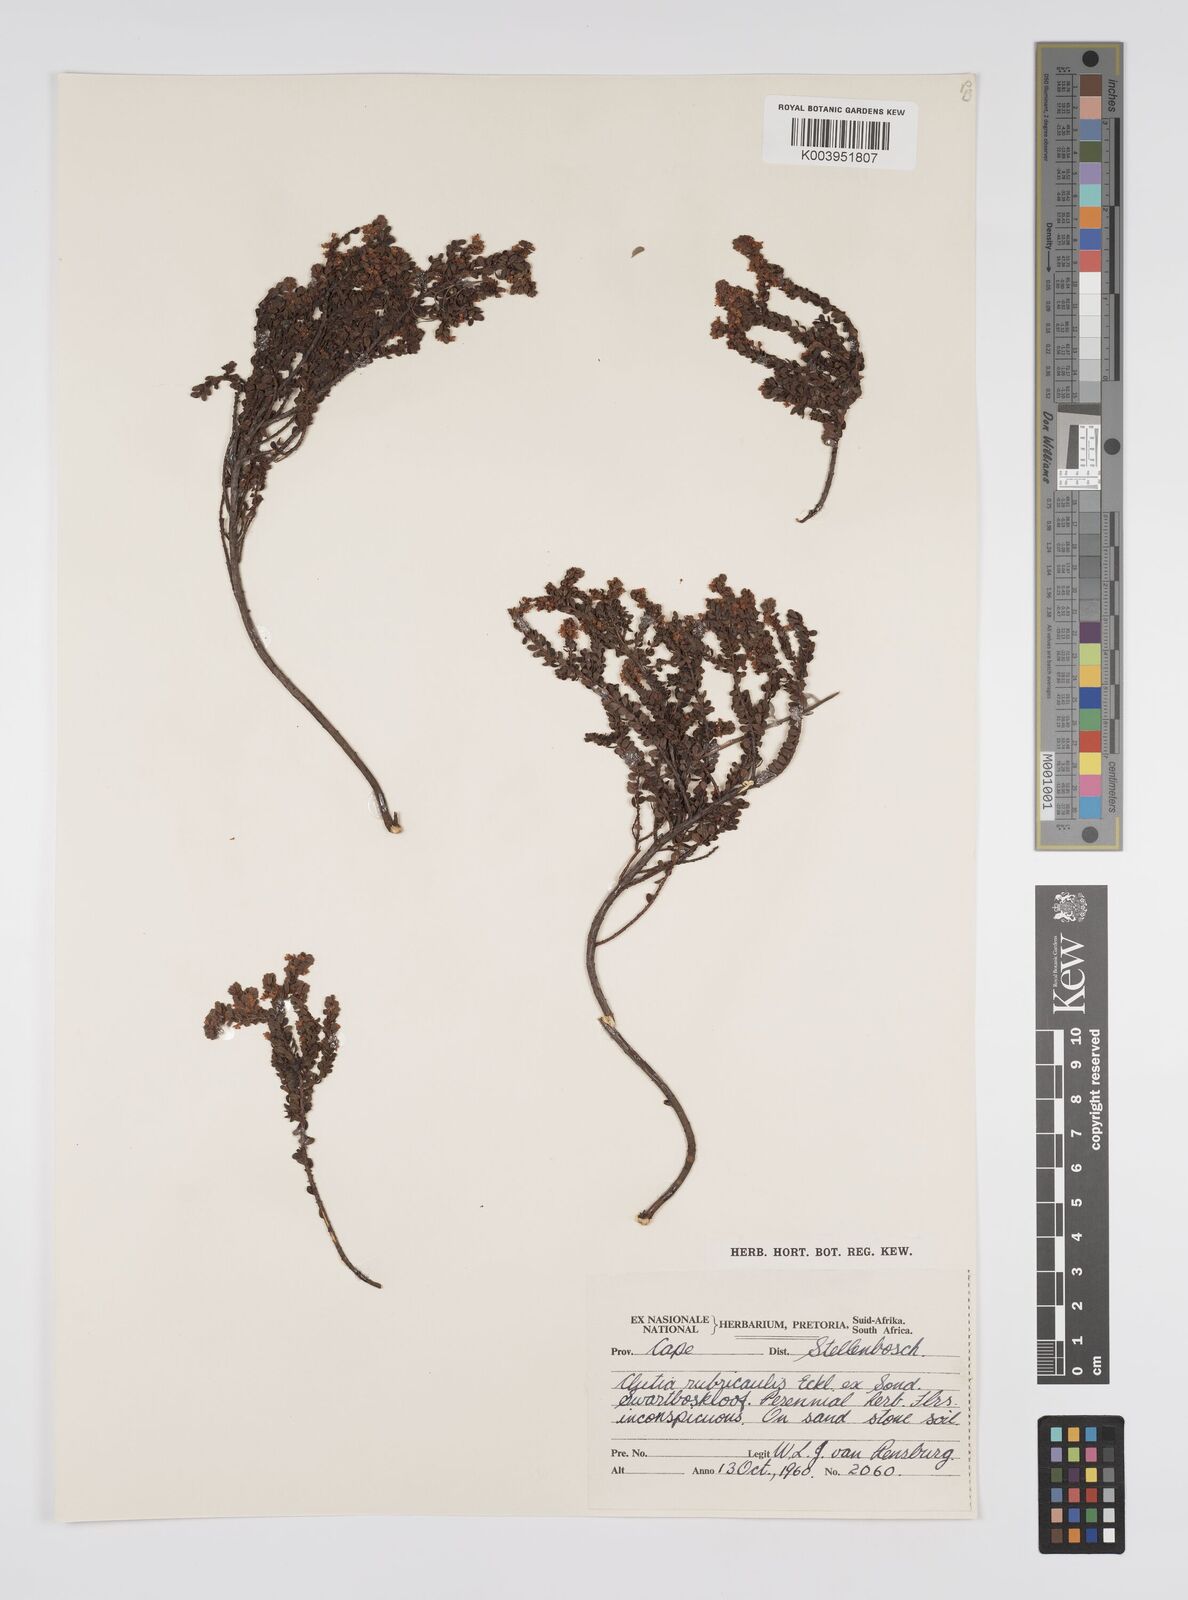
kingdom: Plantae
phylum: Tracheophyta
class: Magnoliopsida
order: Malpighiales
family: Peraceae
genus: Clutia
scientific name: Clutia rubricaulis
